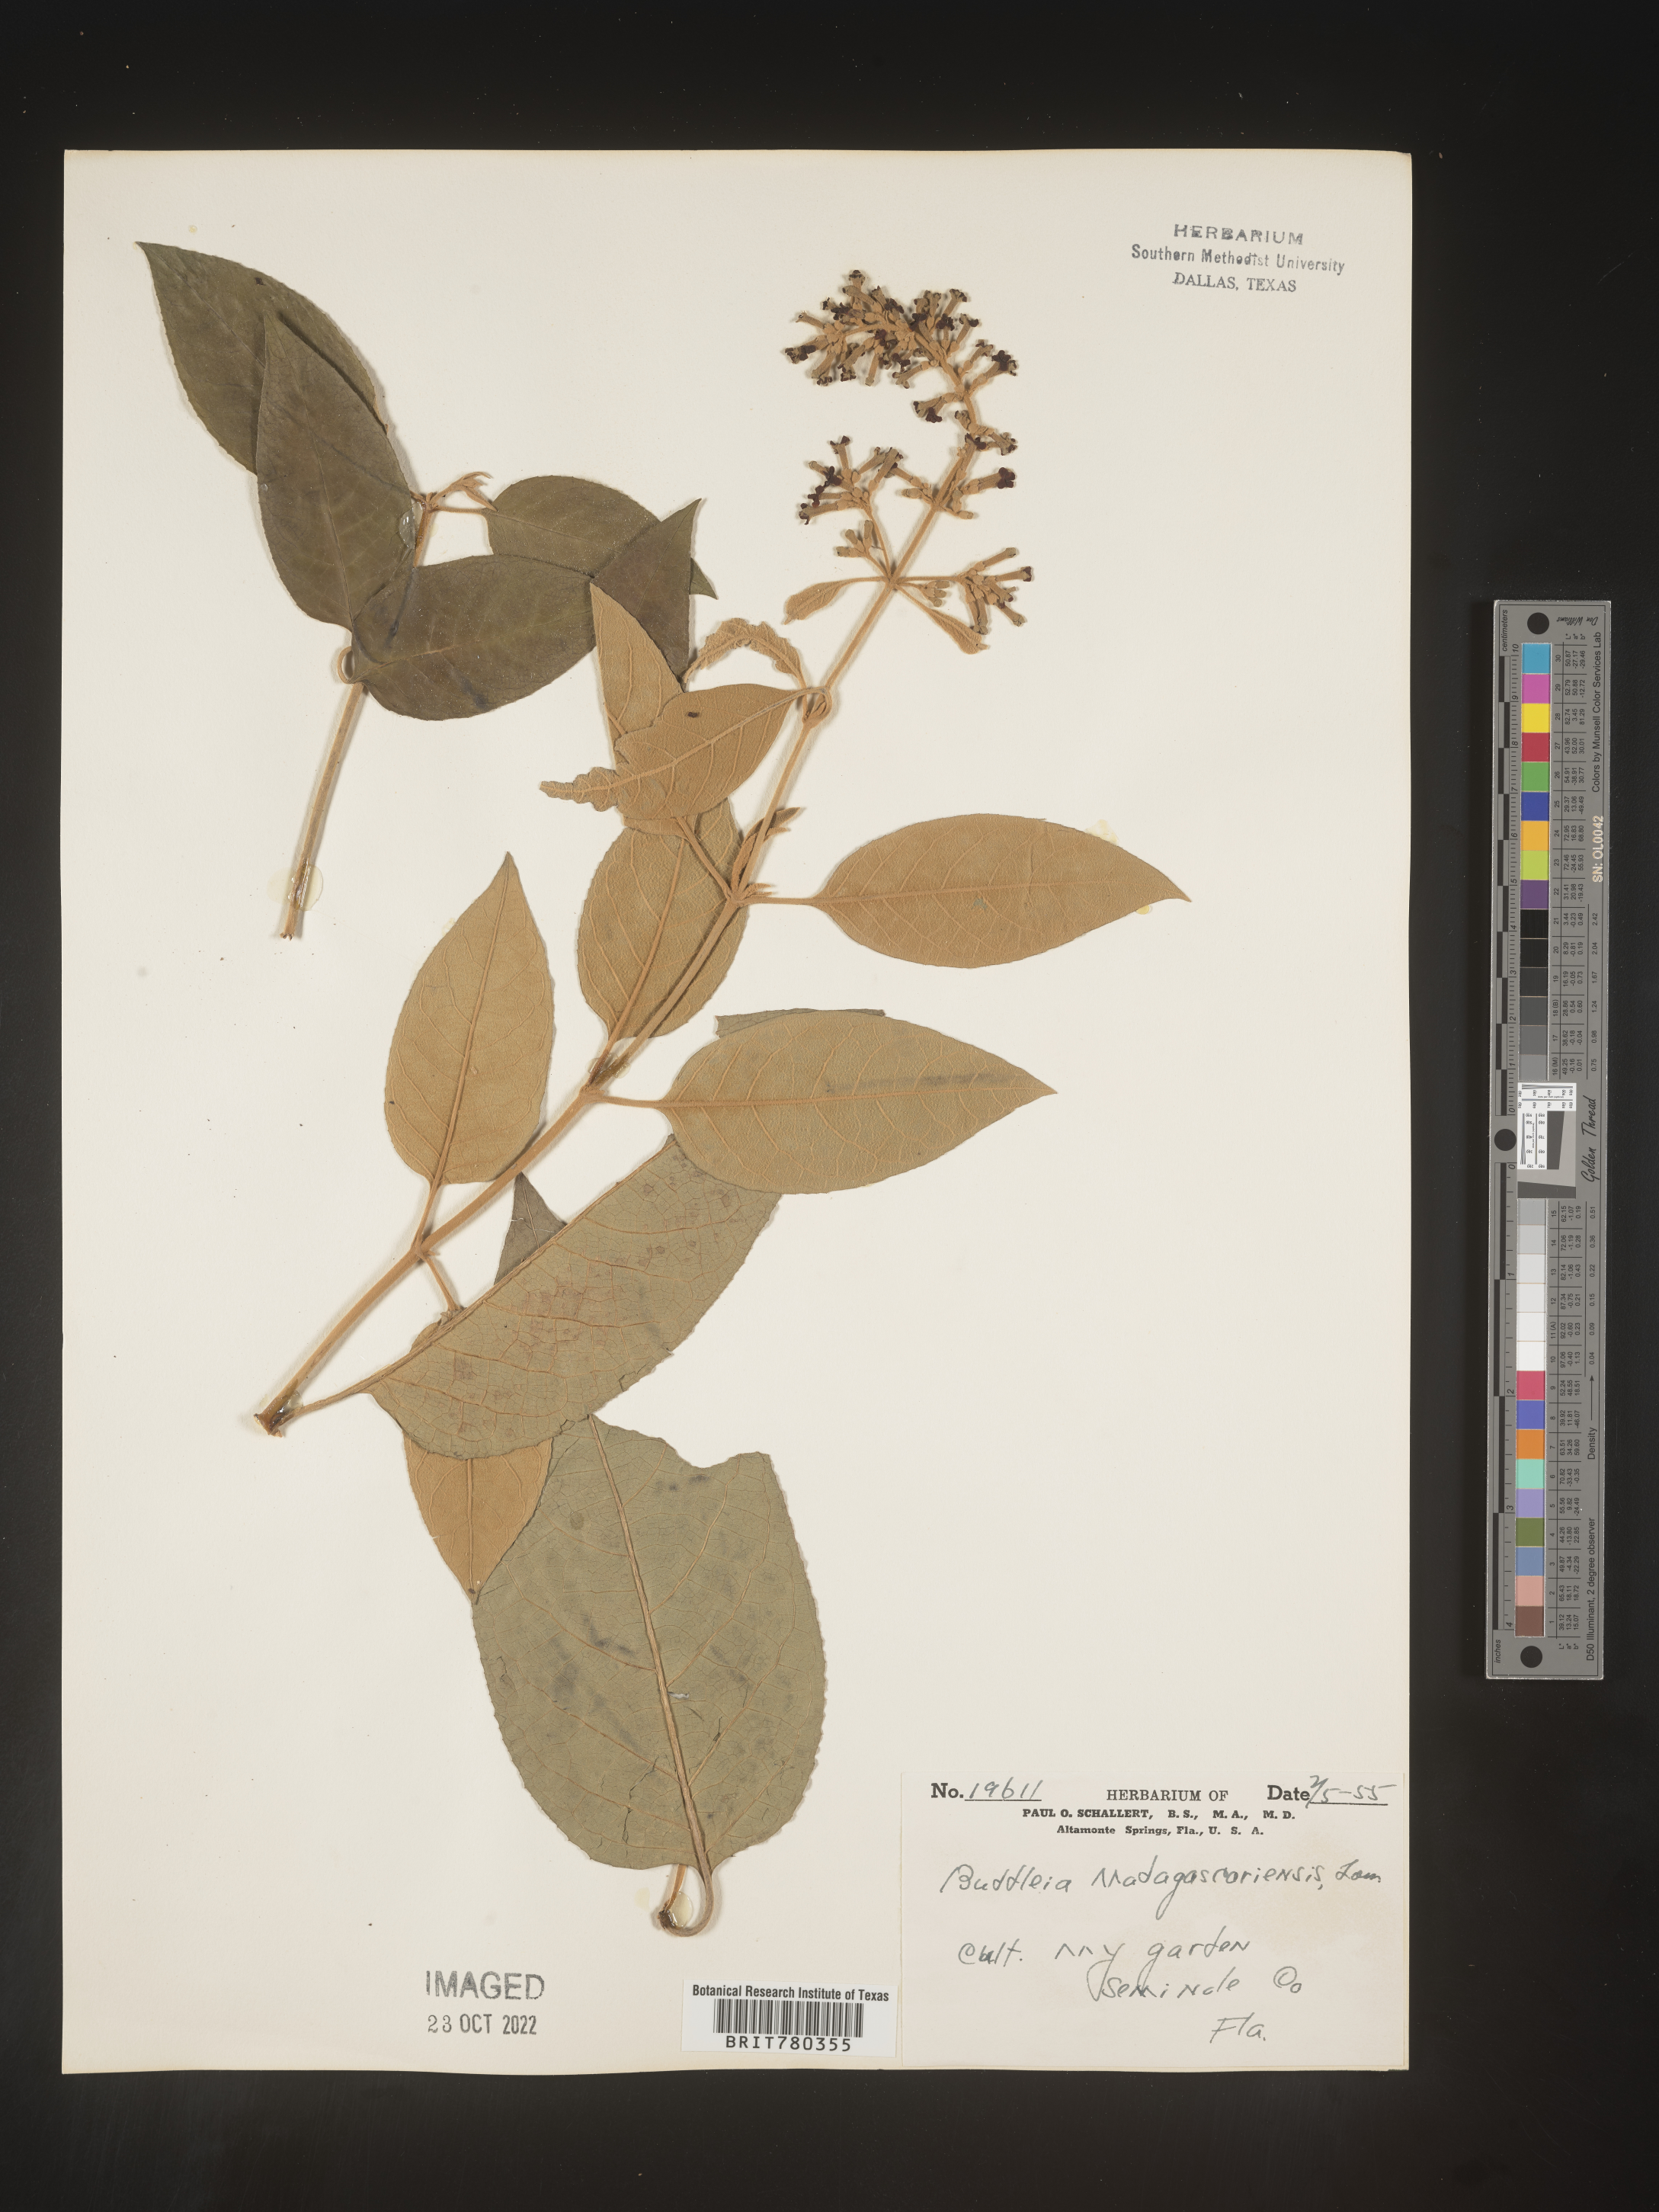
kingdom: Plantae
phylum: Tracheophyta
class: Magnoliopsida
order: Lamiales
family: Scrophulariaceae
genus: Buddleja
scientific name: Buddleja
